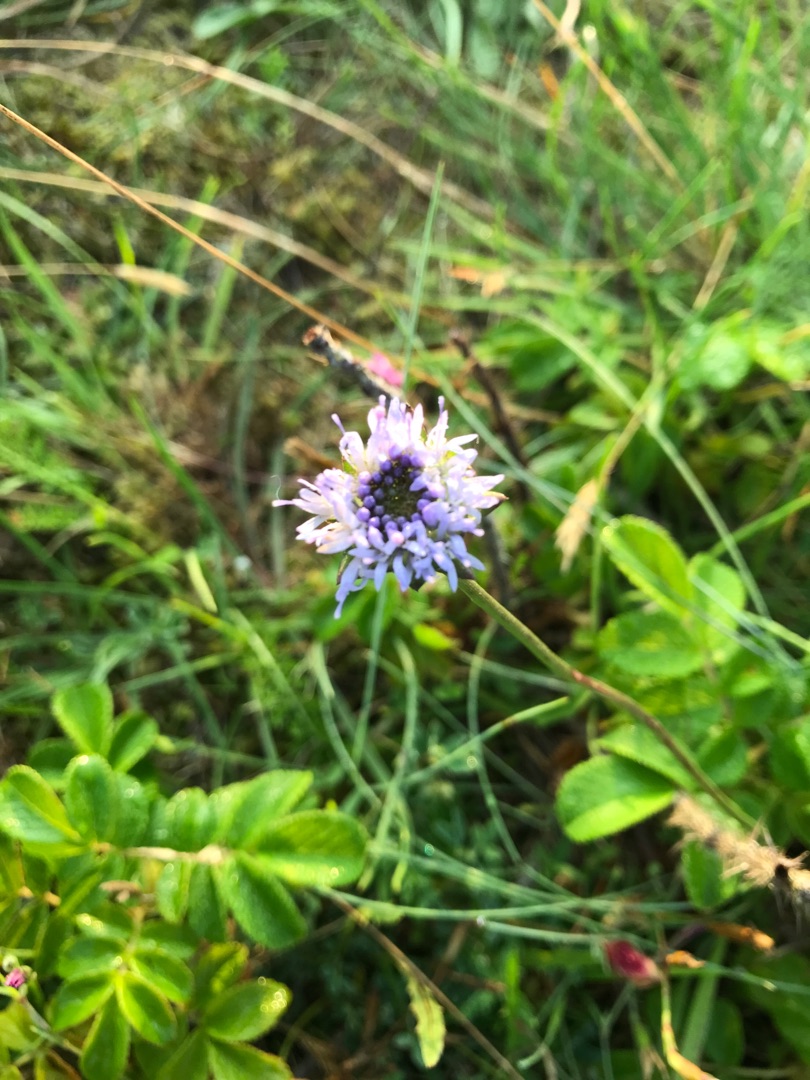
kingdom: Plantae
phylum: Tracheophyta
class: Magnoliopsida
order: Asterales
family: Campanulaceae
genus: Jasione
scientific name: Jasione montana
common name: Blåmunke
